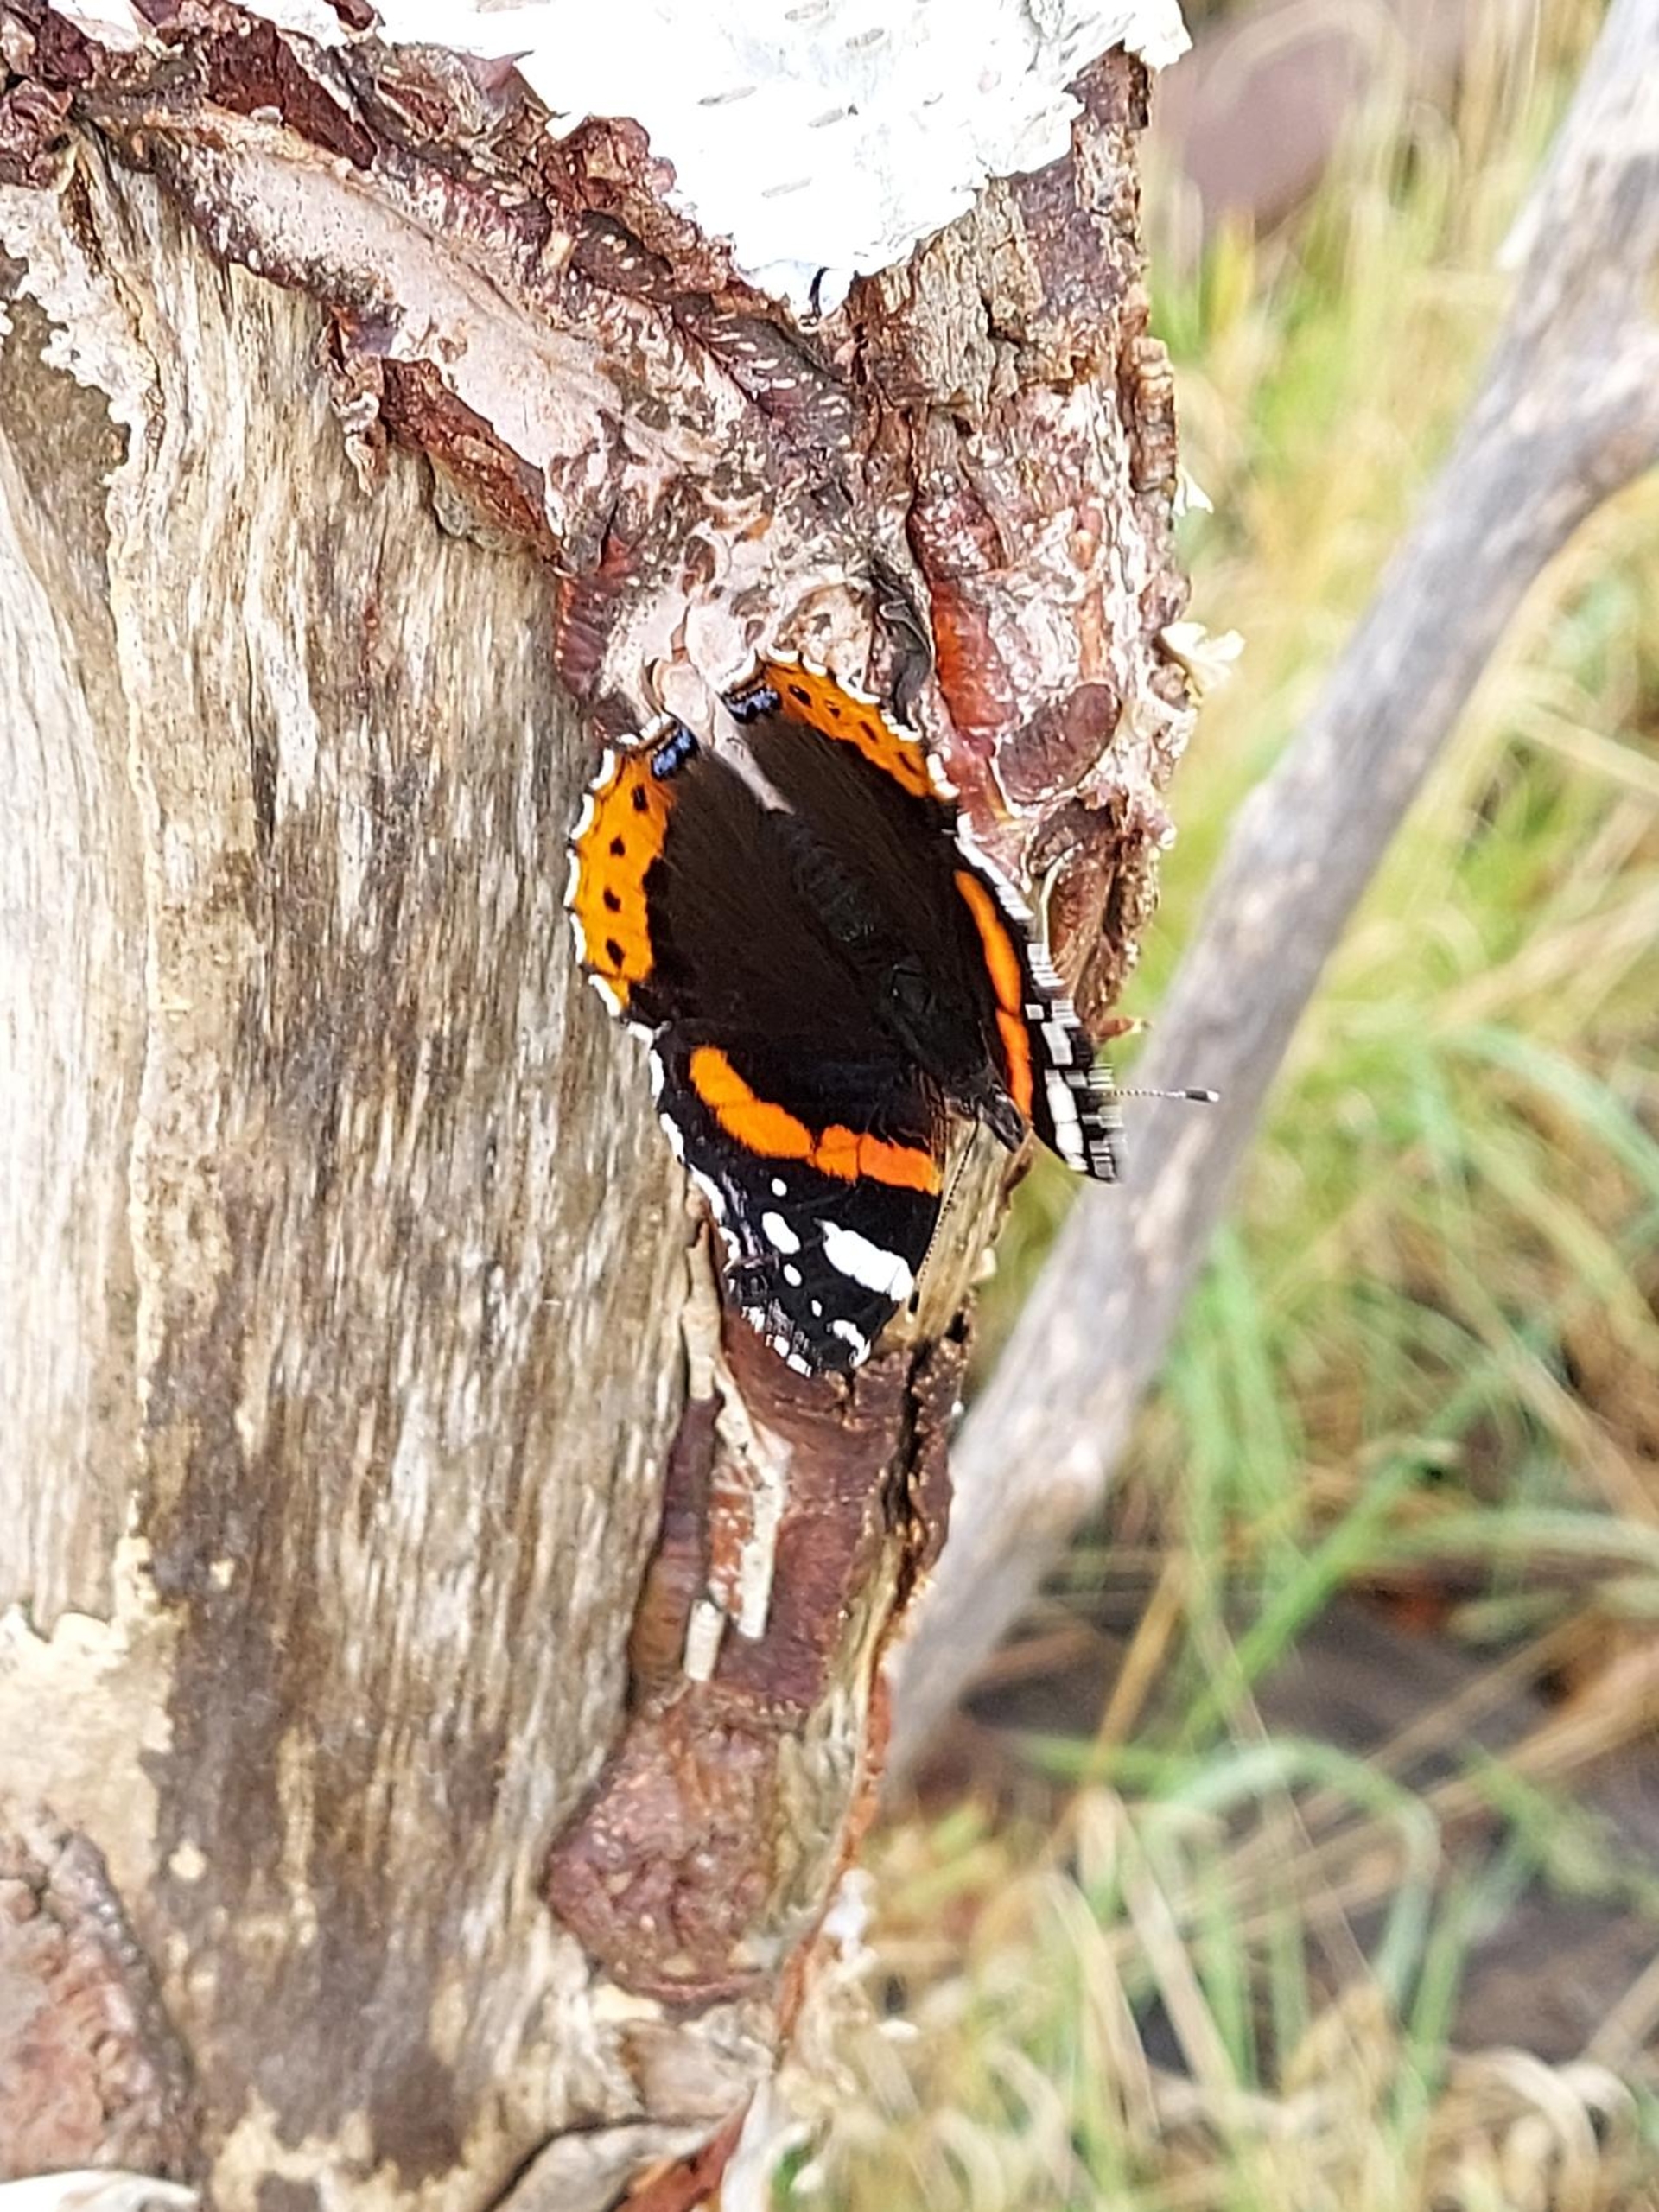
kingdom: Animalia
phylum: Arthropoda
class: Insecta
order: Lepidoptera
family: Nymphalidae
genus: Vanessa
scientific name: Vanessa atalanta
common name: Admiral
